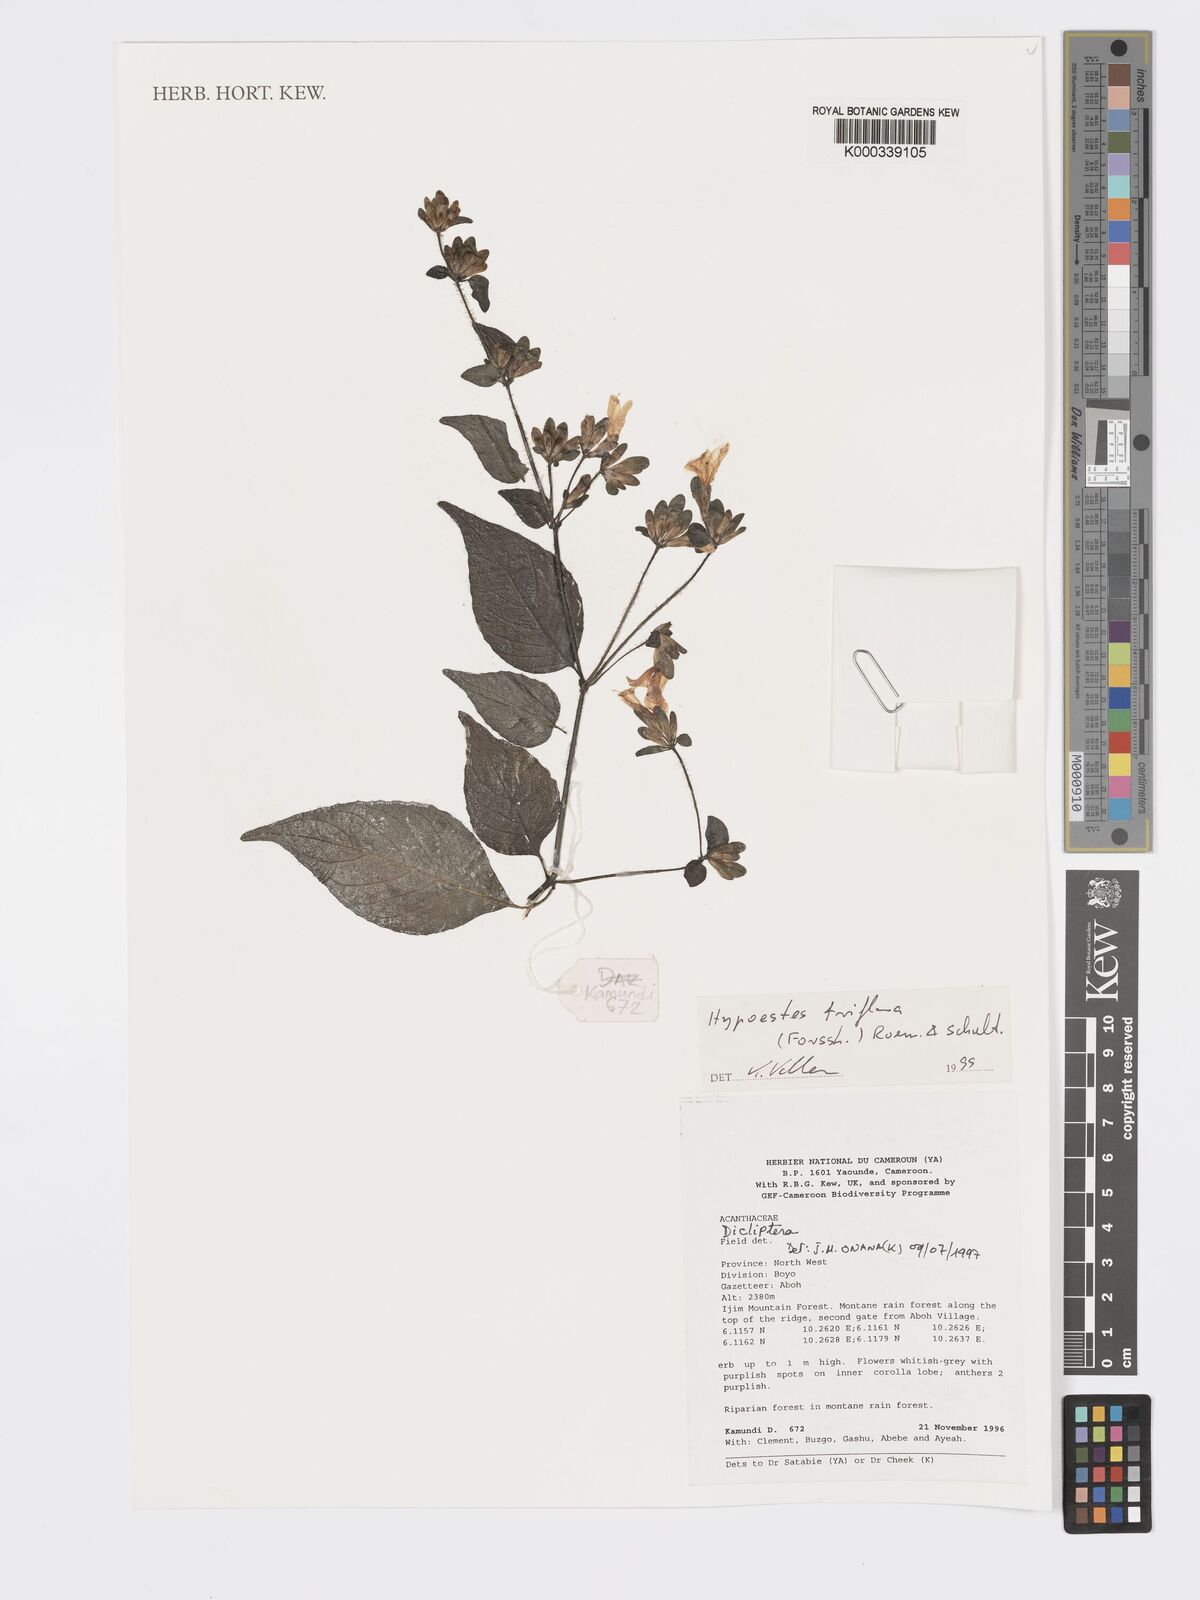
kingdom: Plantae
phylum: Tracheophyta
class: Magnoliopsida
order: Lamiales
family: Acanthaceae
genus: Hypoestes
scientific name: Hypoestes triflora
